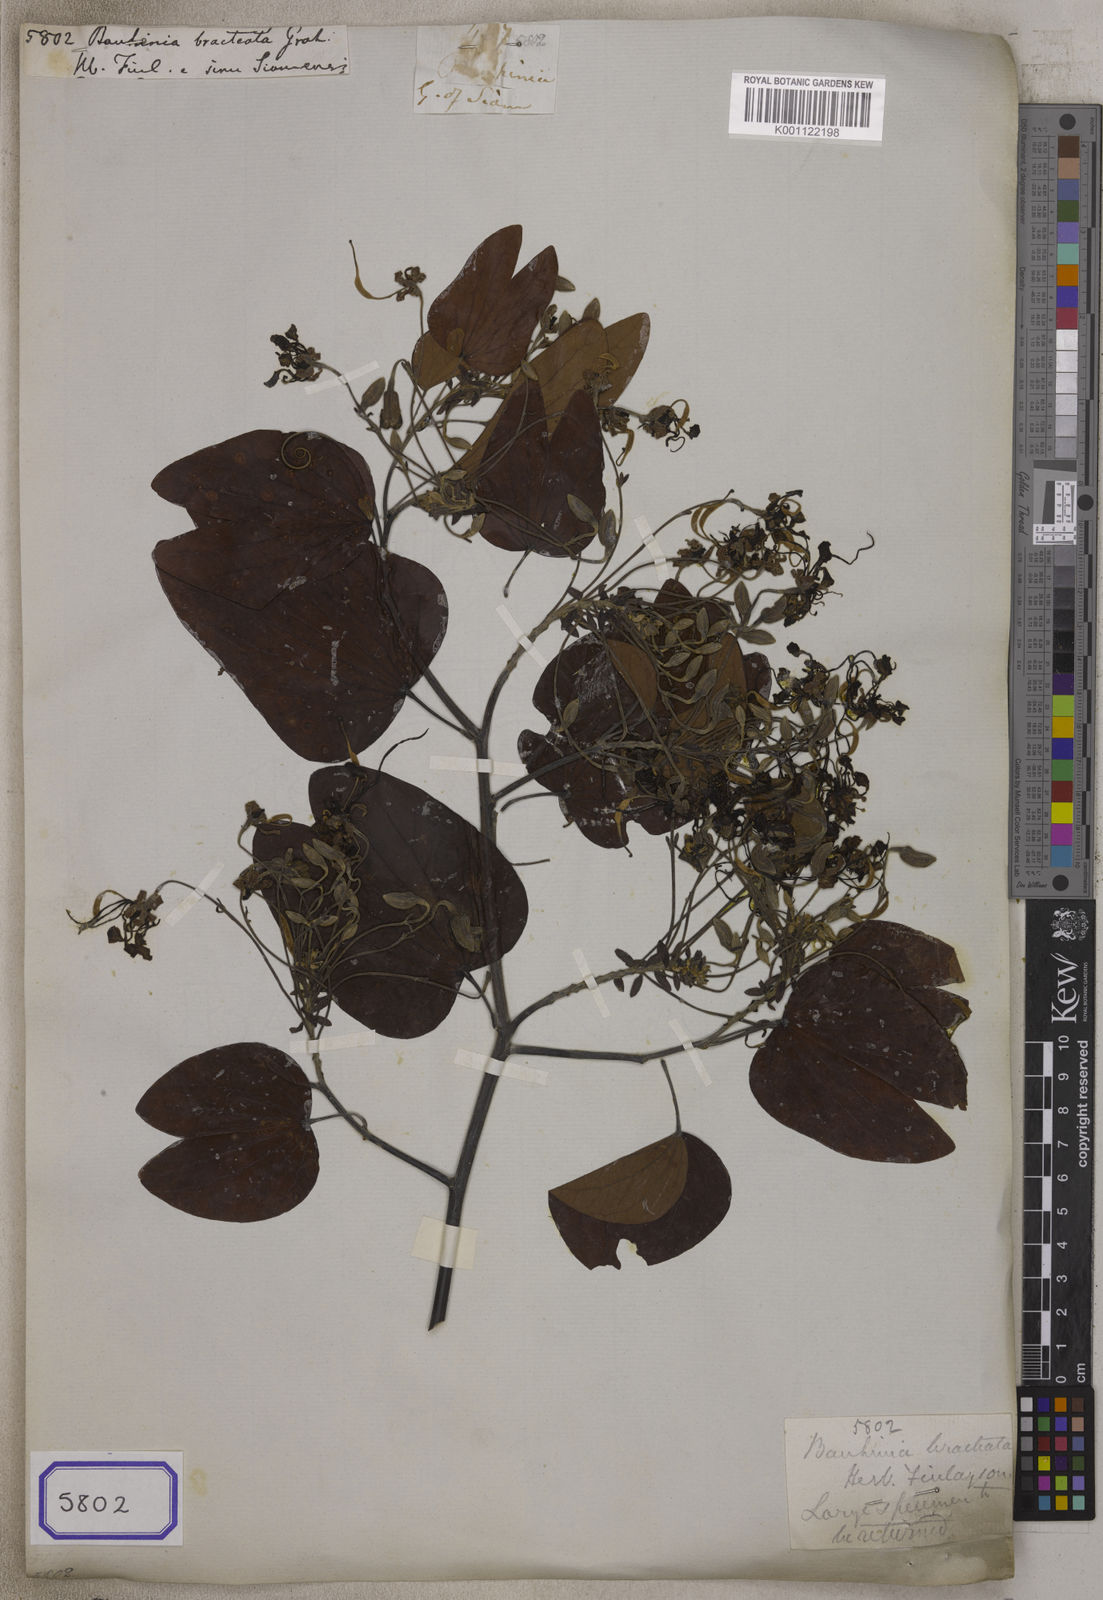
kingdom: Plantae
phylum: Tracheophyta
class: Magnoliopsida
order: Fabales
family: Fabaceae
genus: Bauhinia
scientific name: Bauhinia
